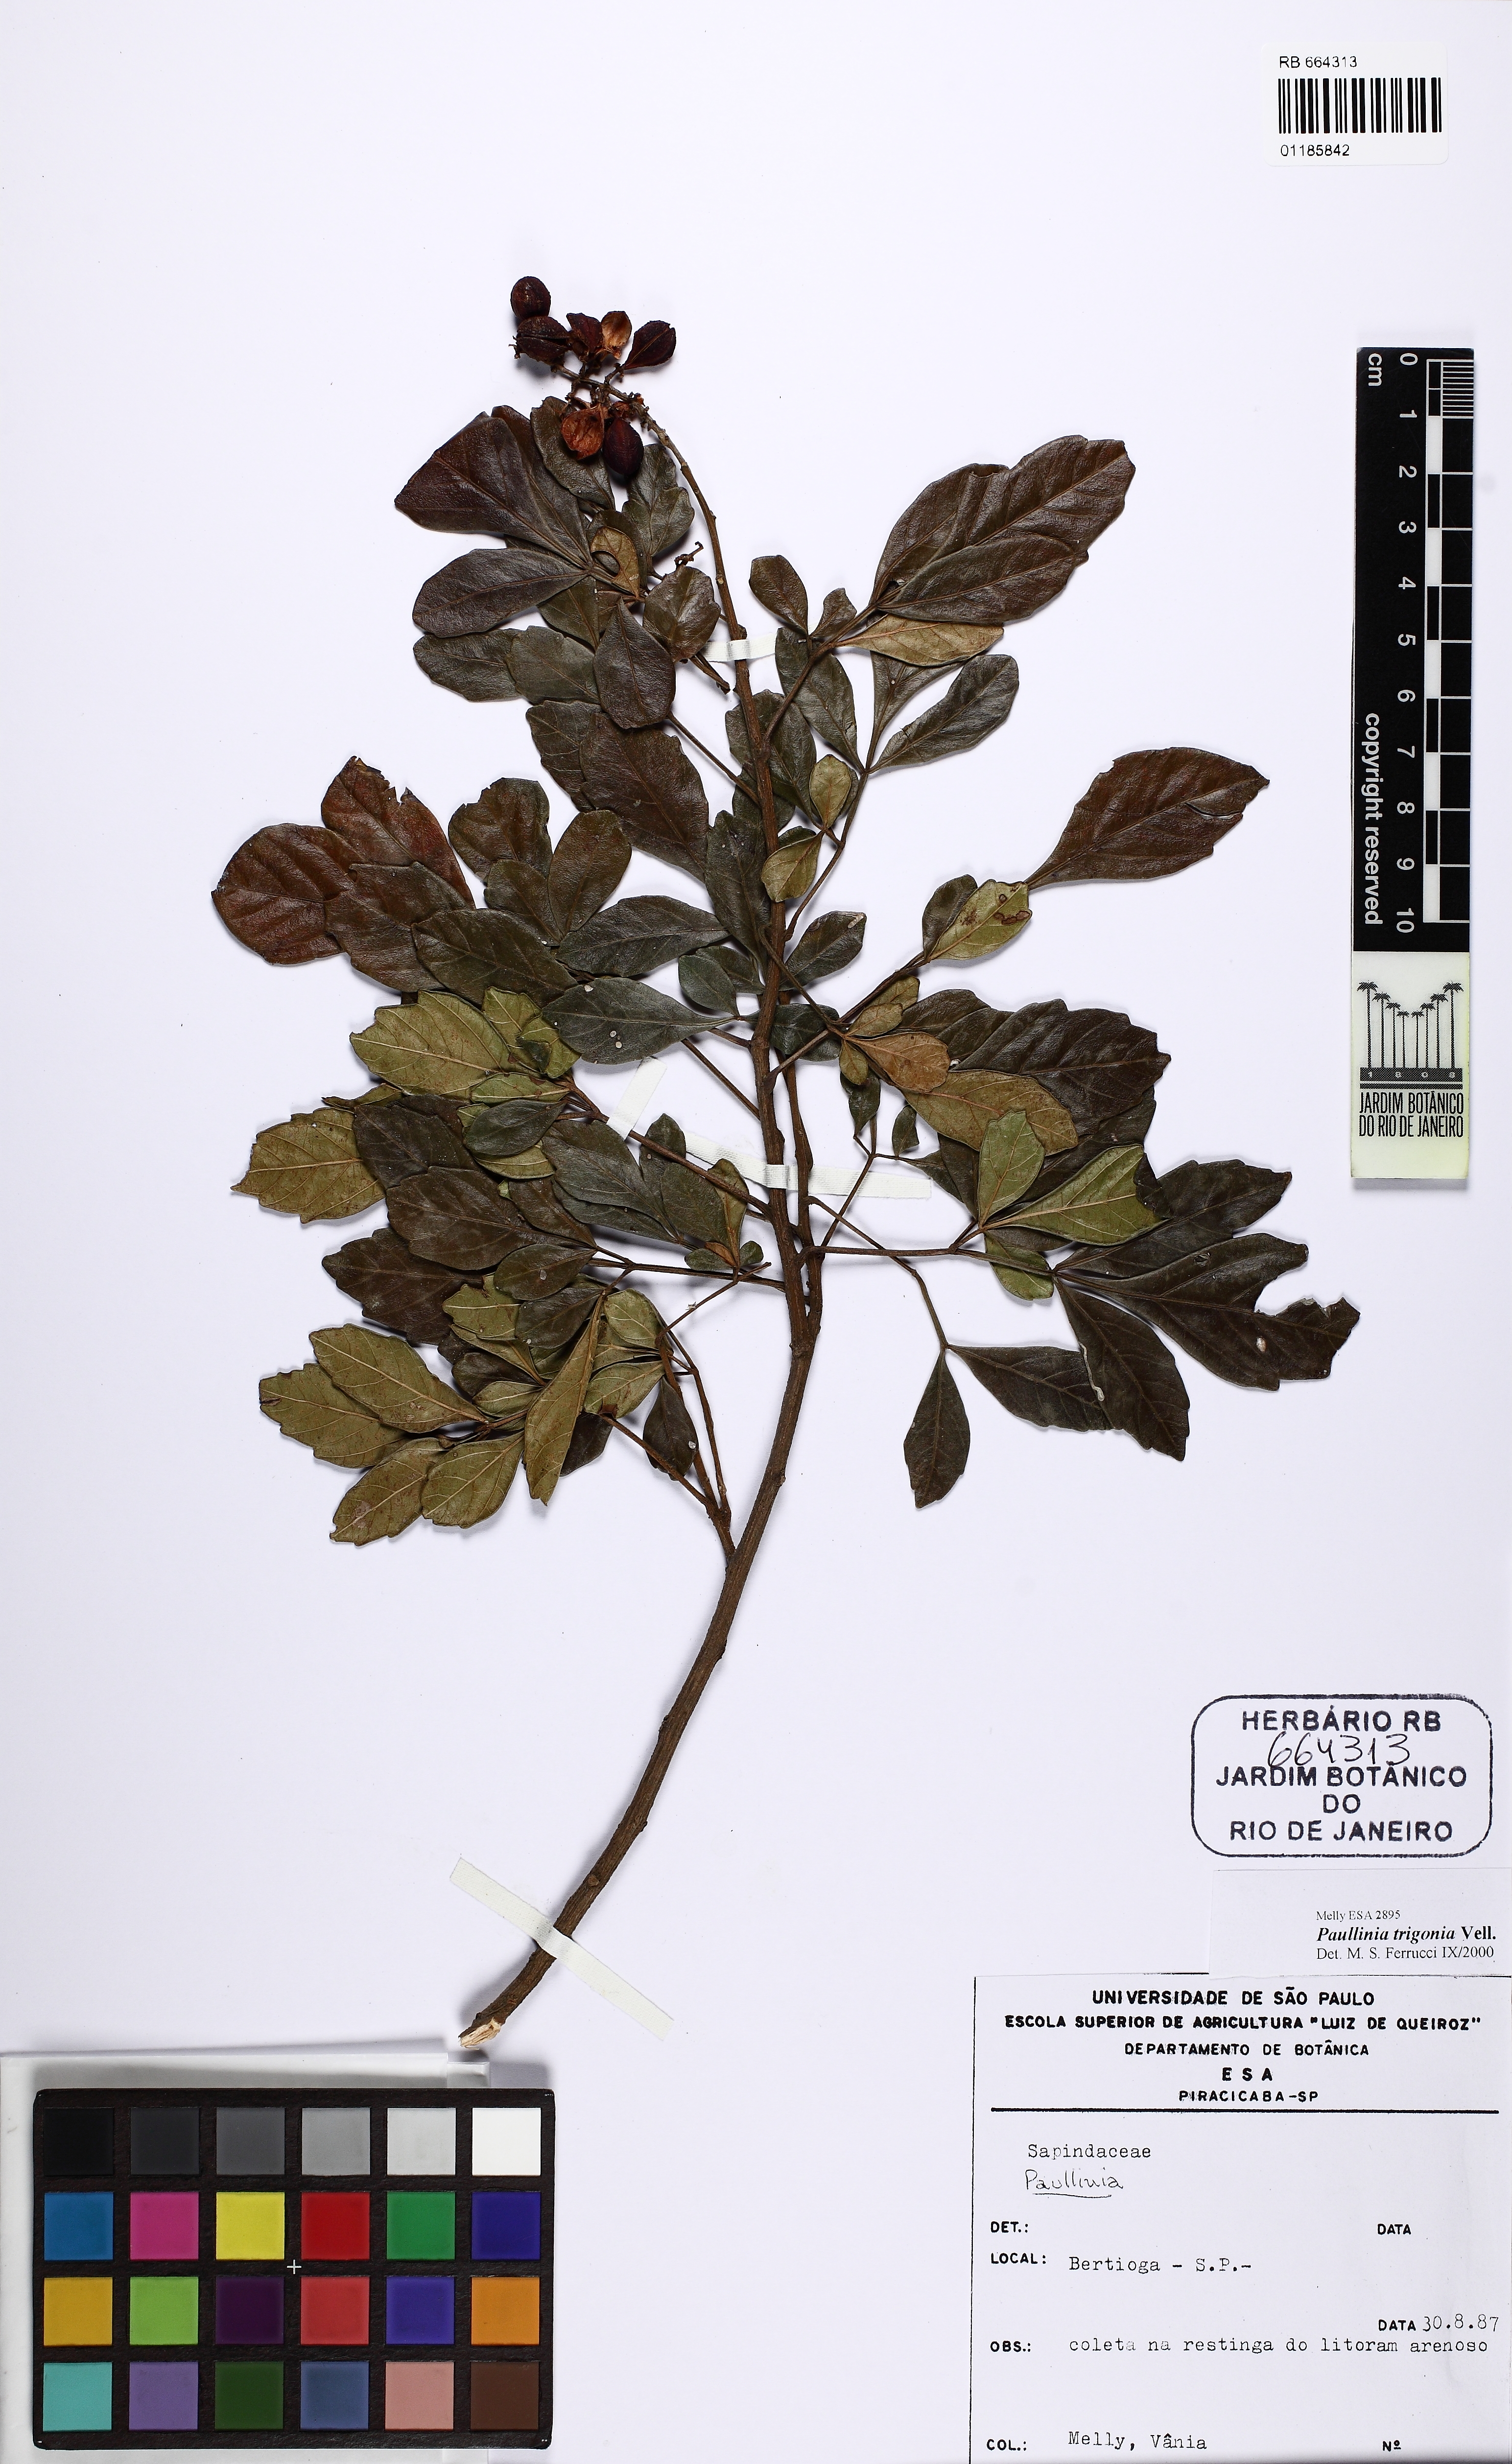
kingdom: Plantae
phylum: Tracheophyta
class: Magnoliopsida
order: Sapindales
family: Sapindaceae
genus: Paullinia
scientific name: Paullinia trigonia
